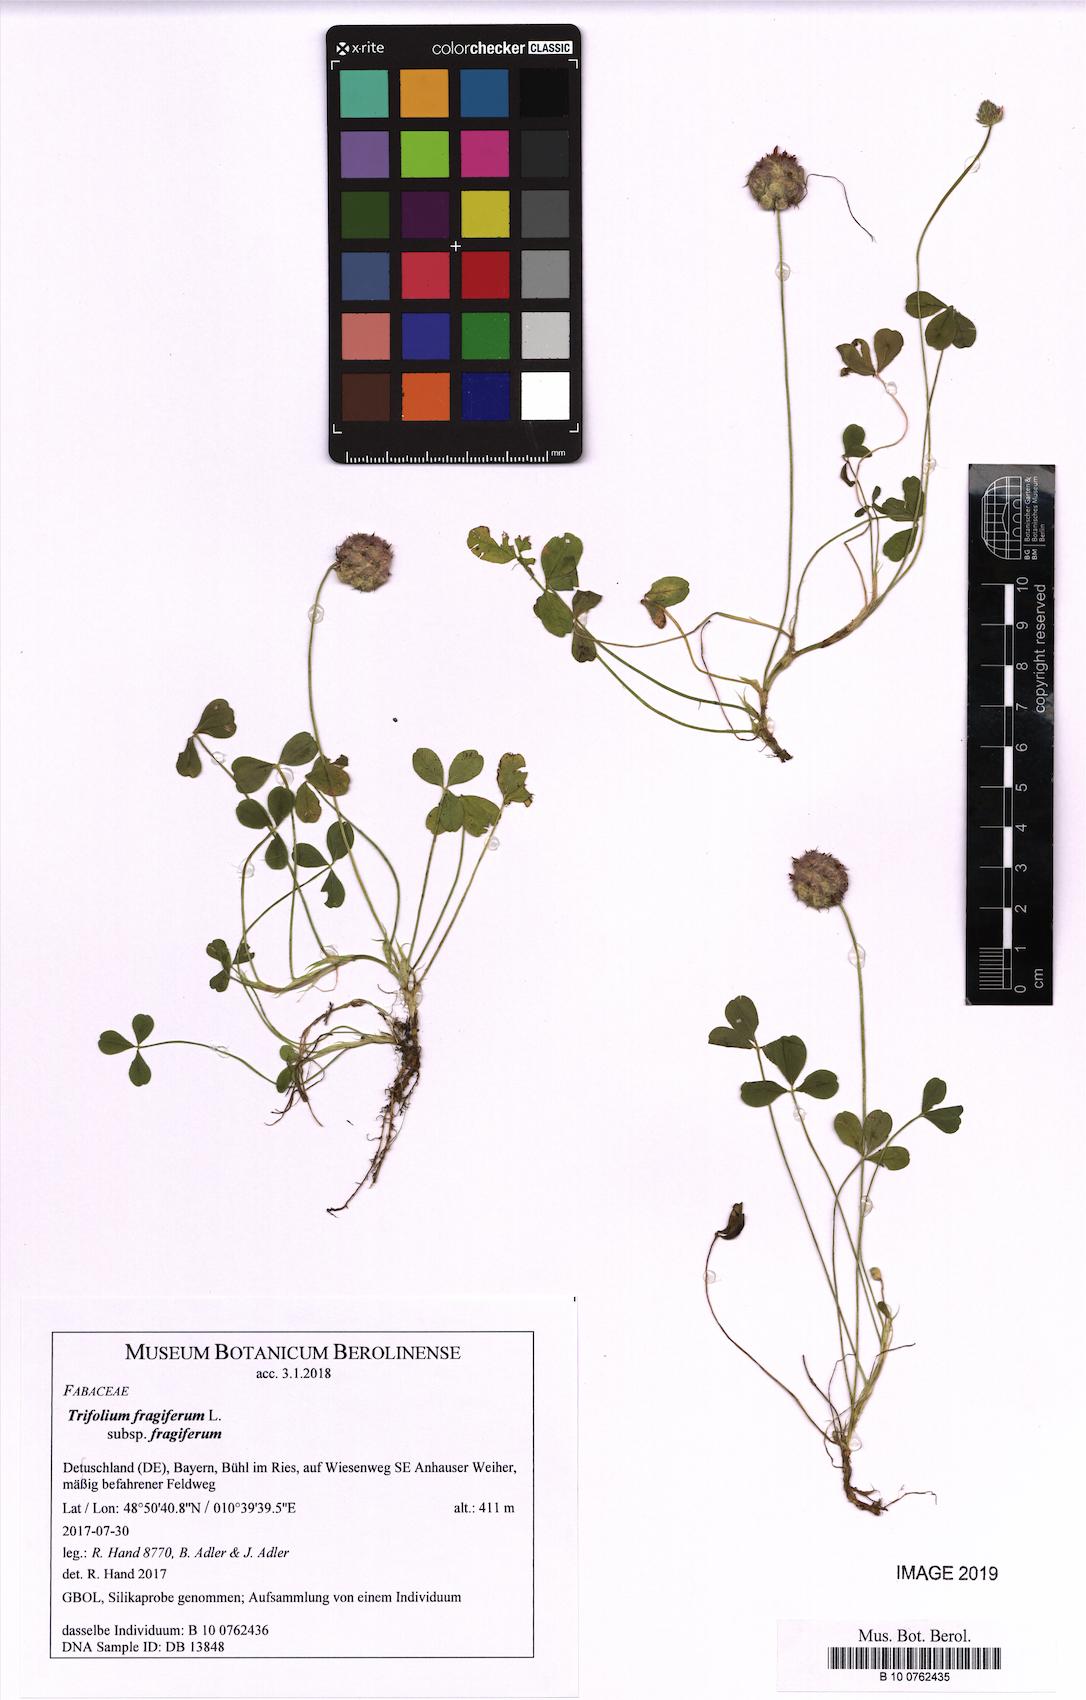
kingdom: Plantae
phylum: Tracheophyta
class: Magnoliopsida
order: Fabales
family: Fabaceae
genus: Trifolium
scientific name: Trifolium fragiferum
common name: Strawberry clover
